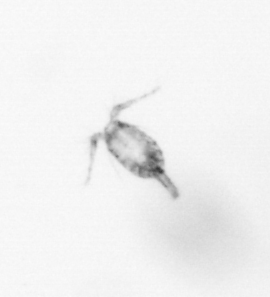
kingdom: Animalia
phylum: Arthropoda
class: Copepoda
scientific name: Copepoda
